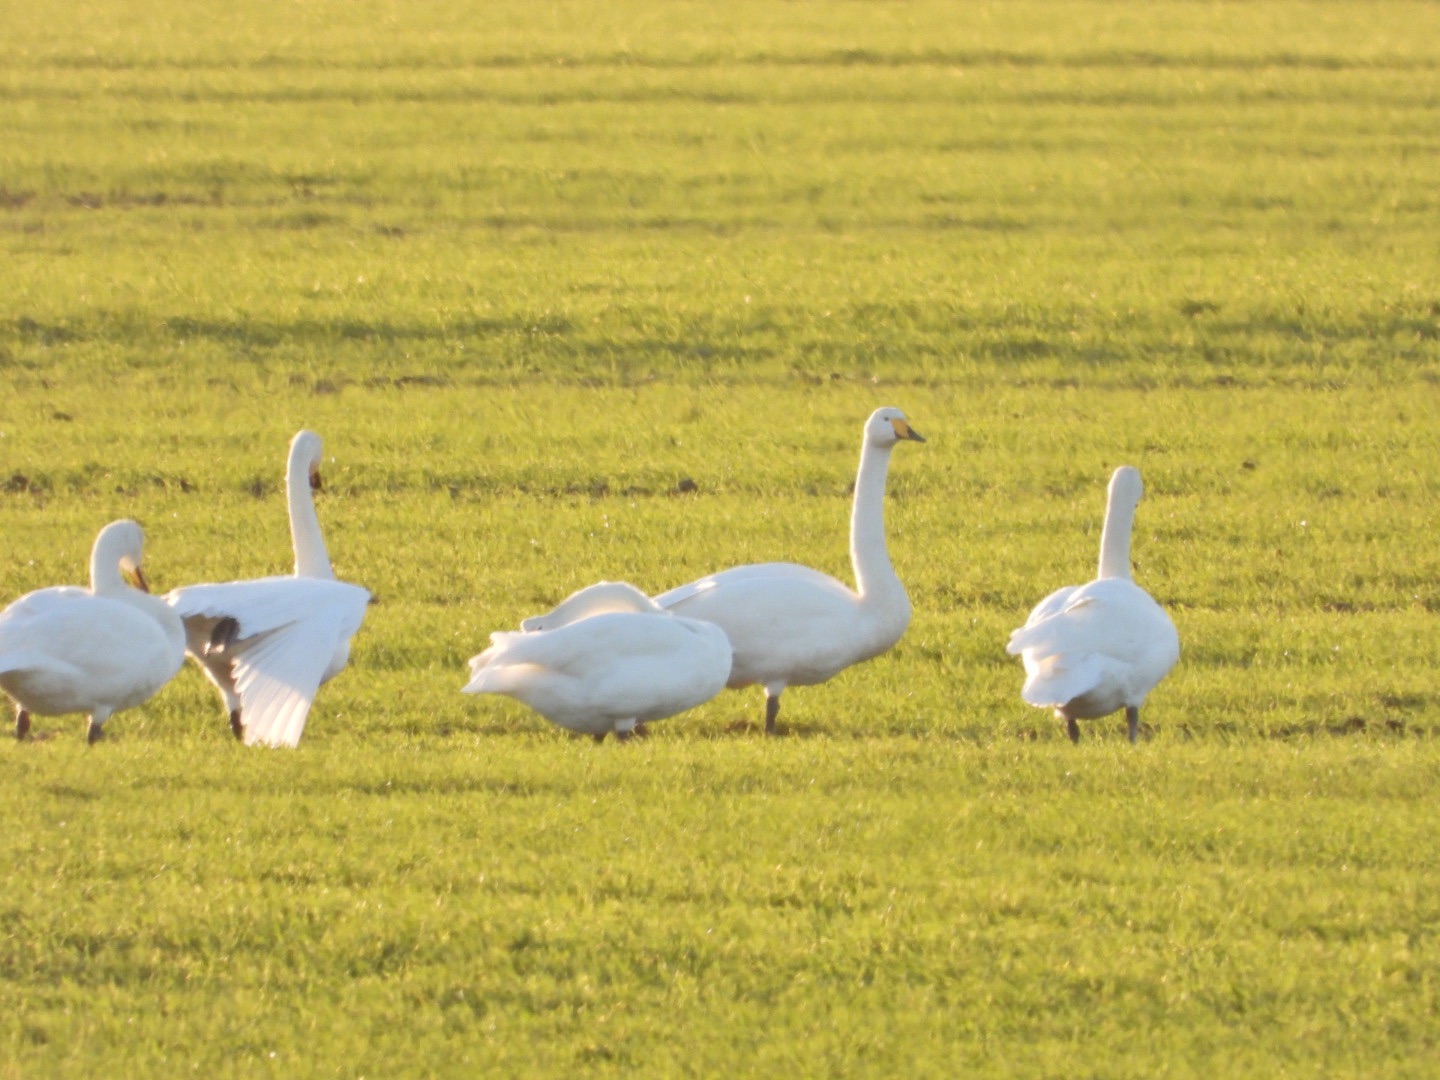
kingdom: Animalia
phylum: Chordata
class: Aves
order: Anseriformes
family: Anatidae
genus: Cygnus
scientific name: Cygnus cygnus
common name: Sangsvane
